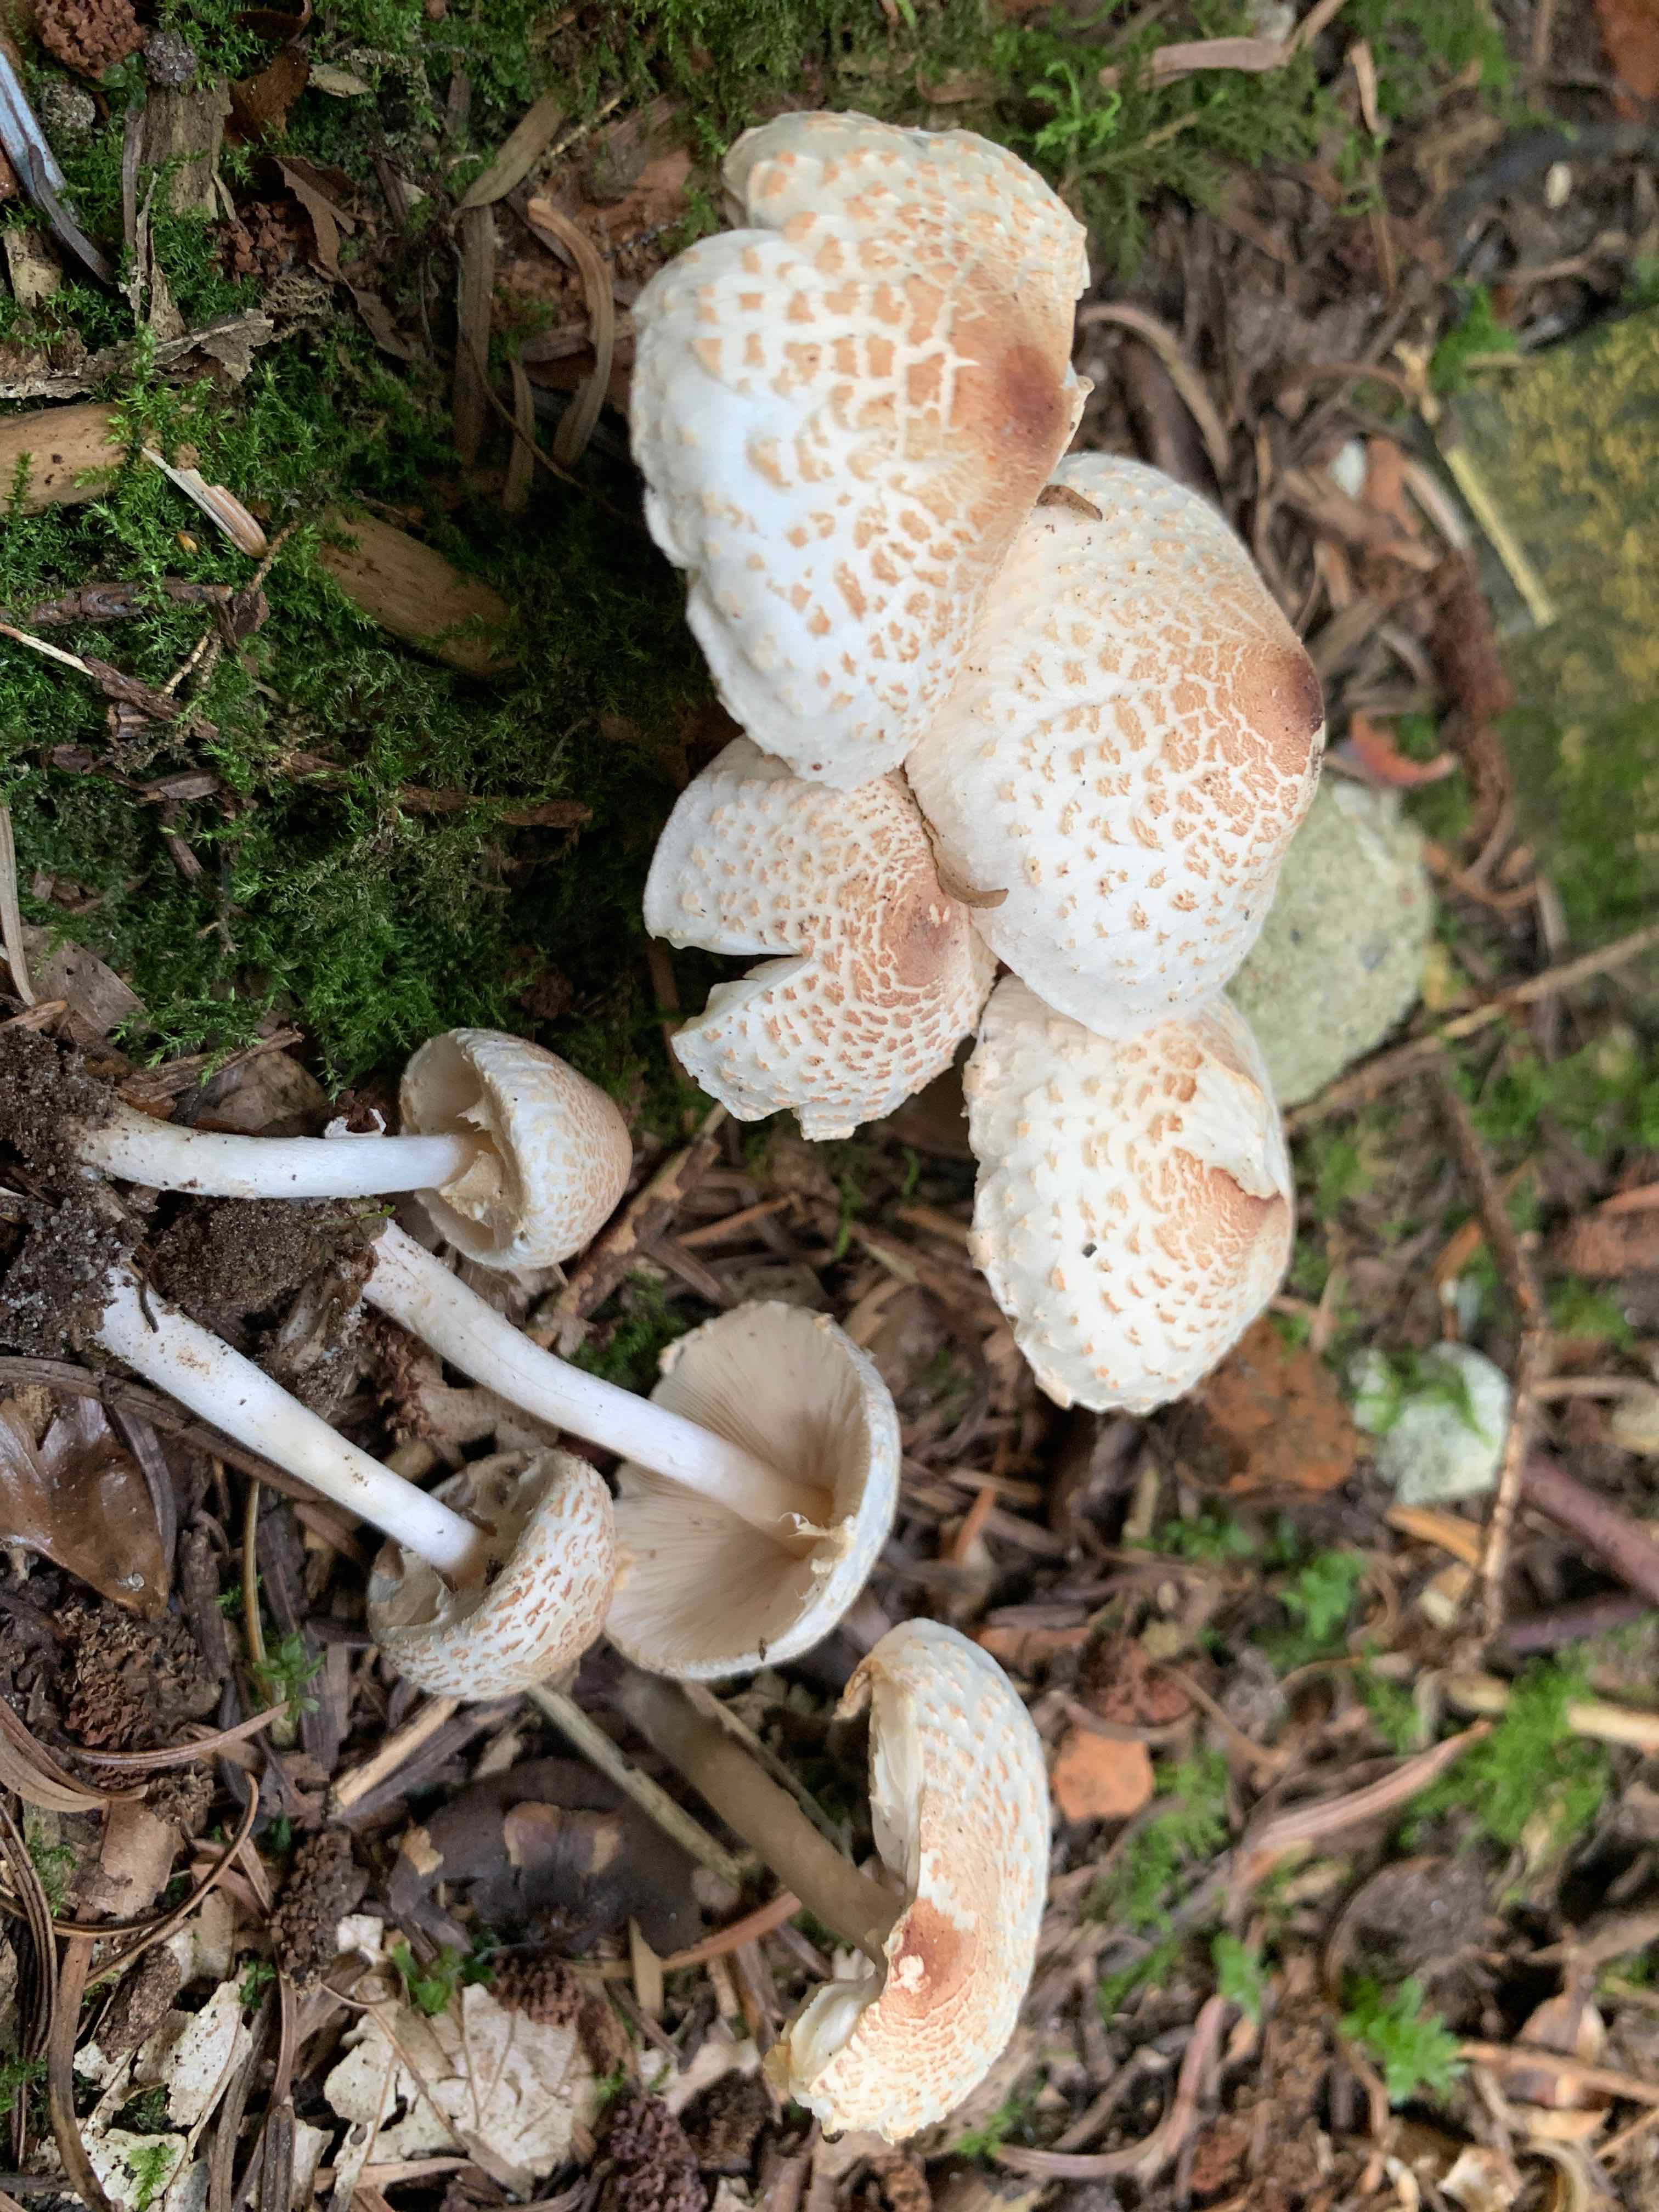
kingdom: Fungi
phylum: Basidiomycota
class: Agaricomycetes
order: Agaricales
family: Agaricaceae
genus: Lepiota
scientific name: Lepiota cristata
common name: stinkende parasolhat
